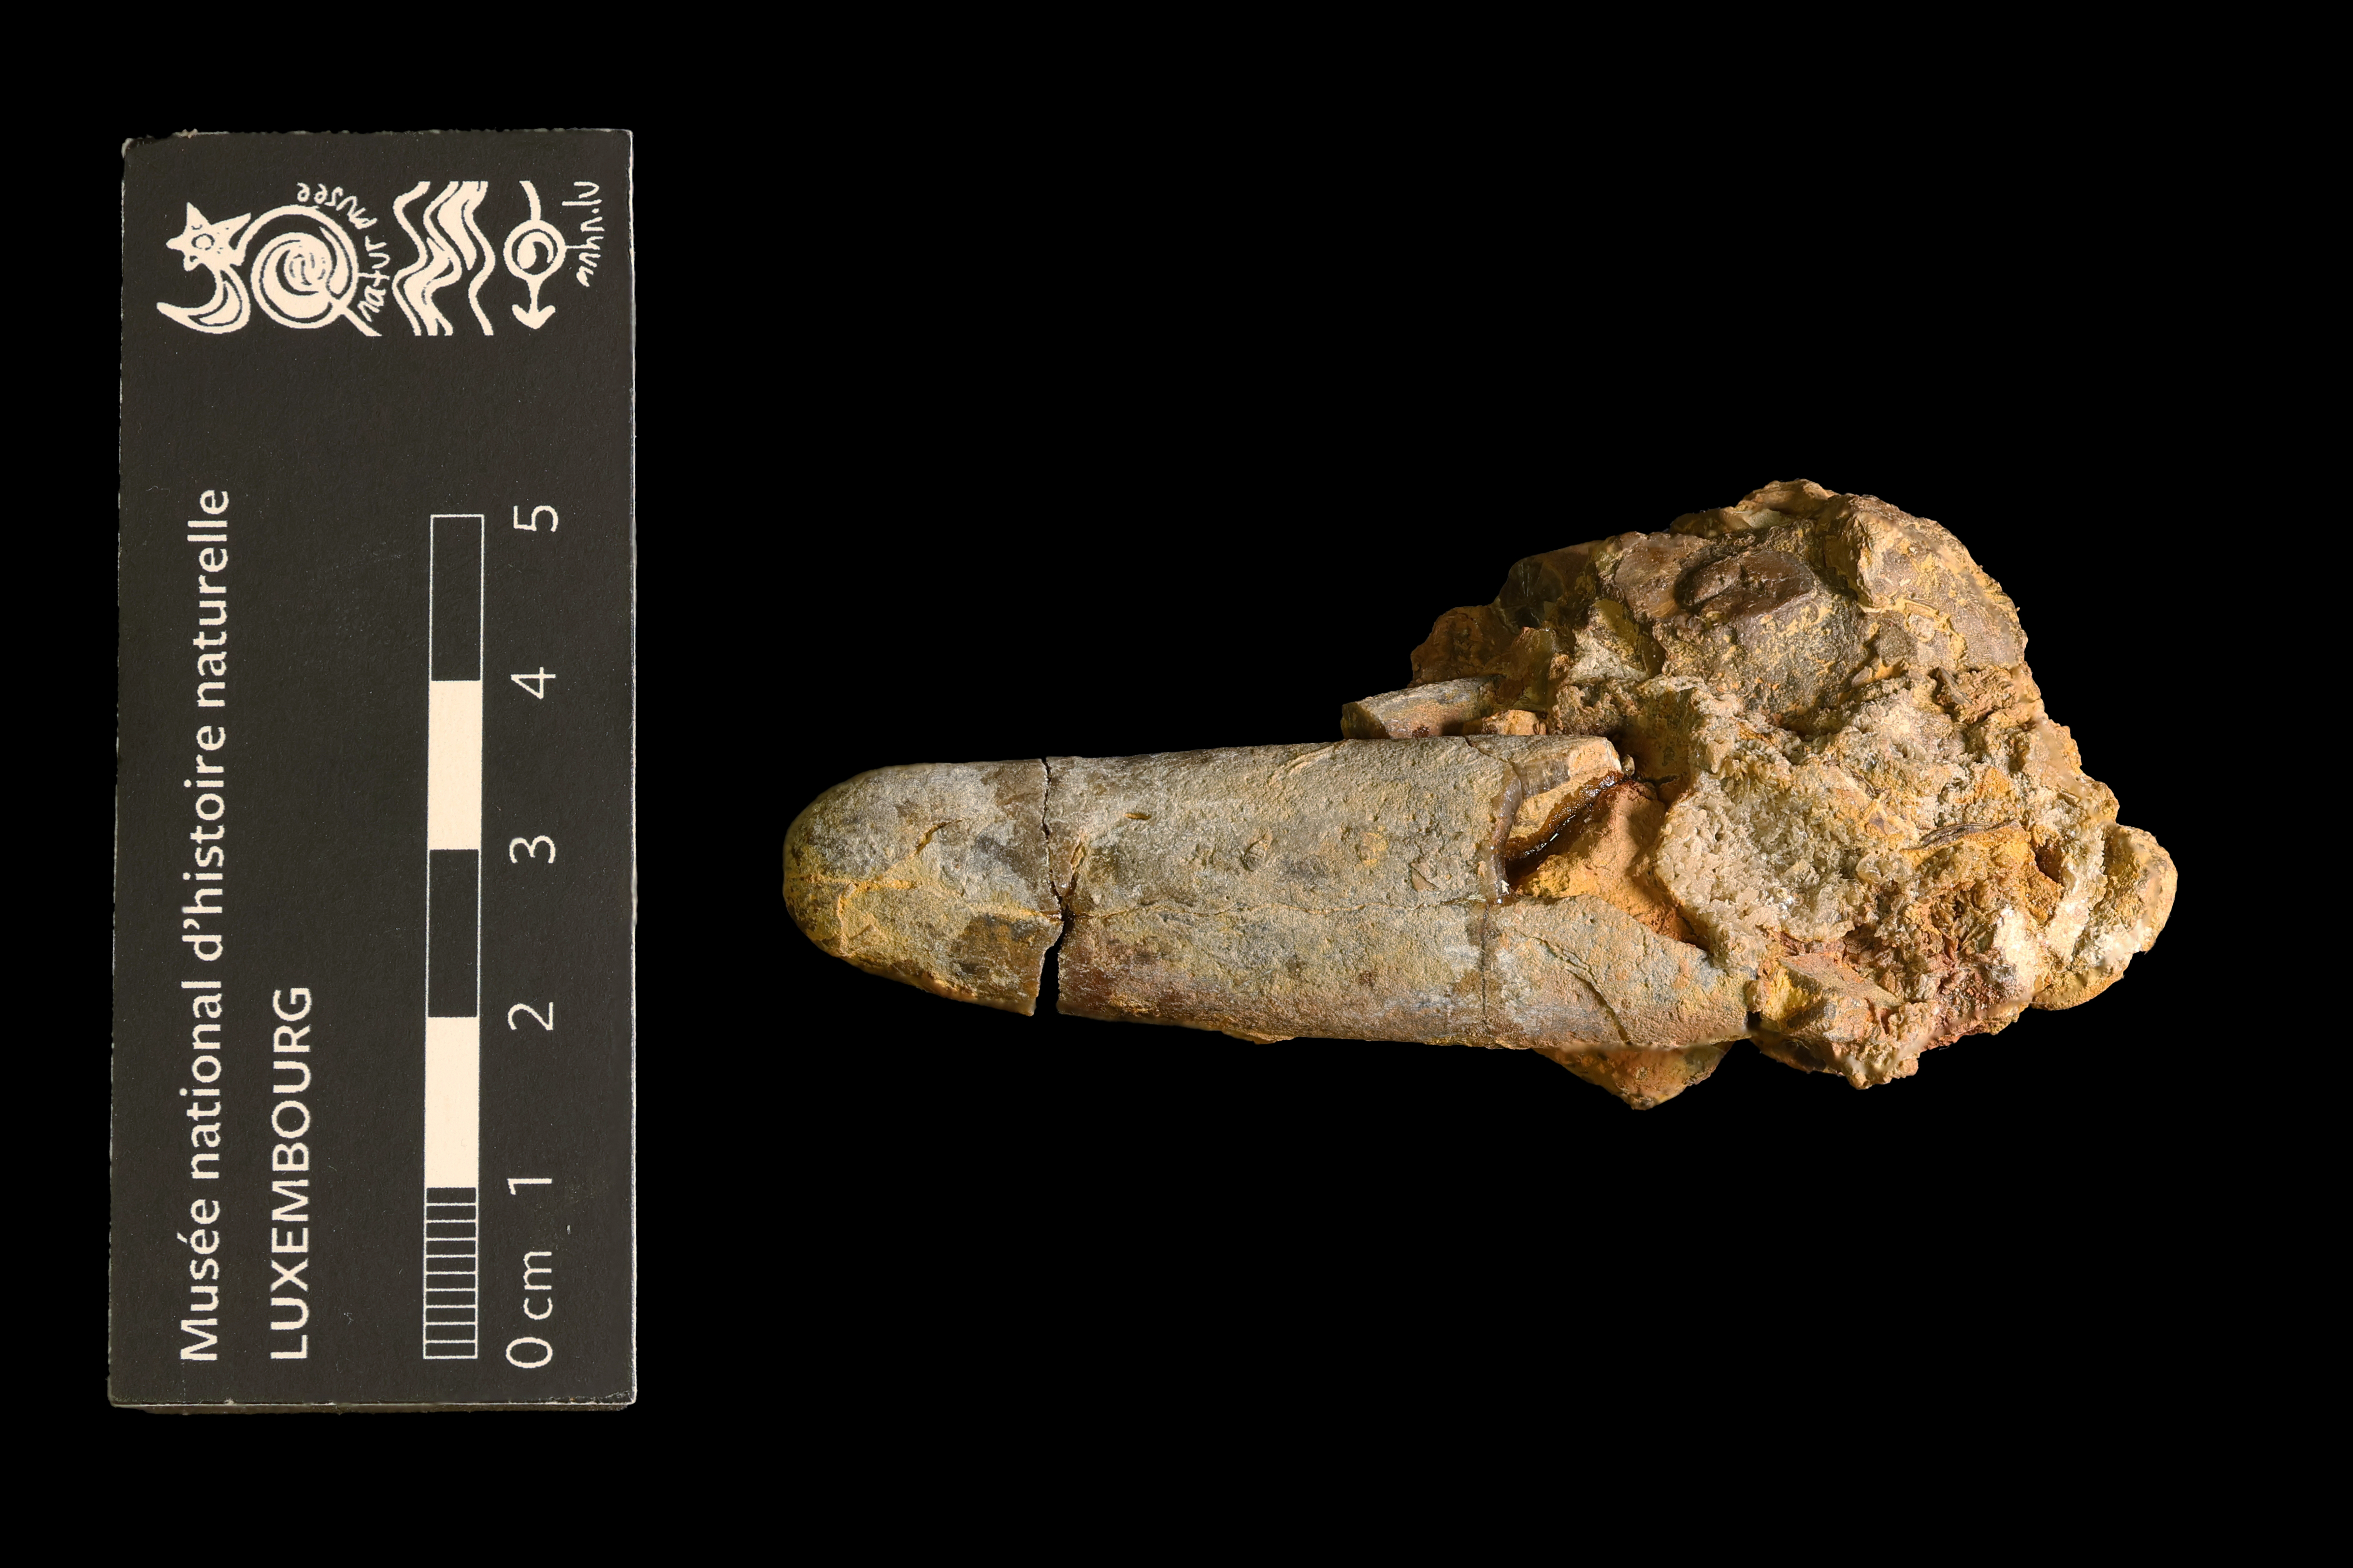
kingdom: Animalia
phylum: Mollusca
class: Cephalopoda
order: Belemnitida
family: Megateuthididae
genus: Dactyloteuthis
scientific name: Dactyloteuthis irregularis
